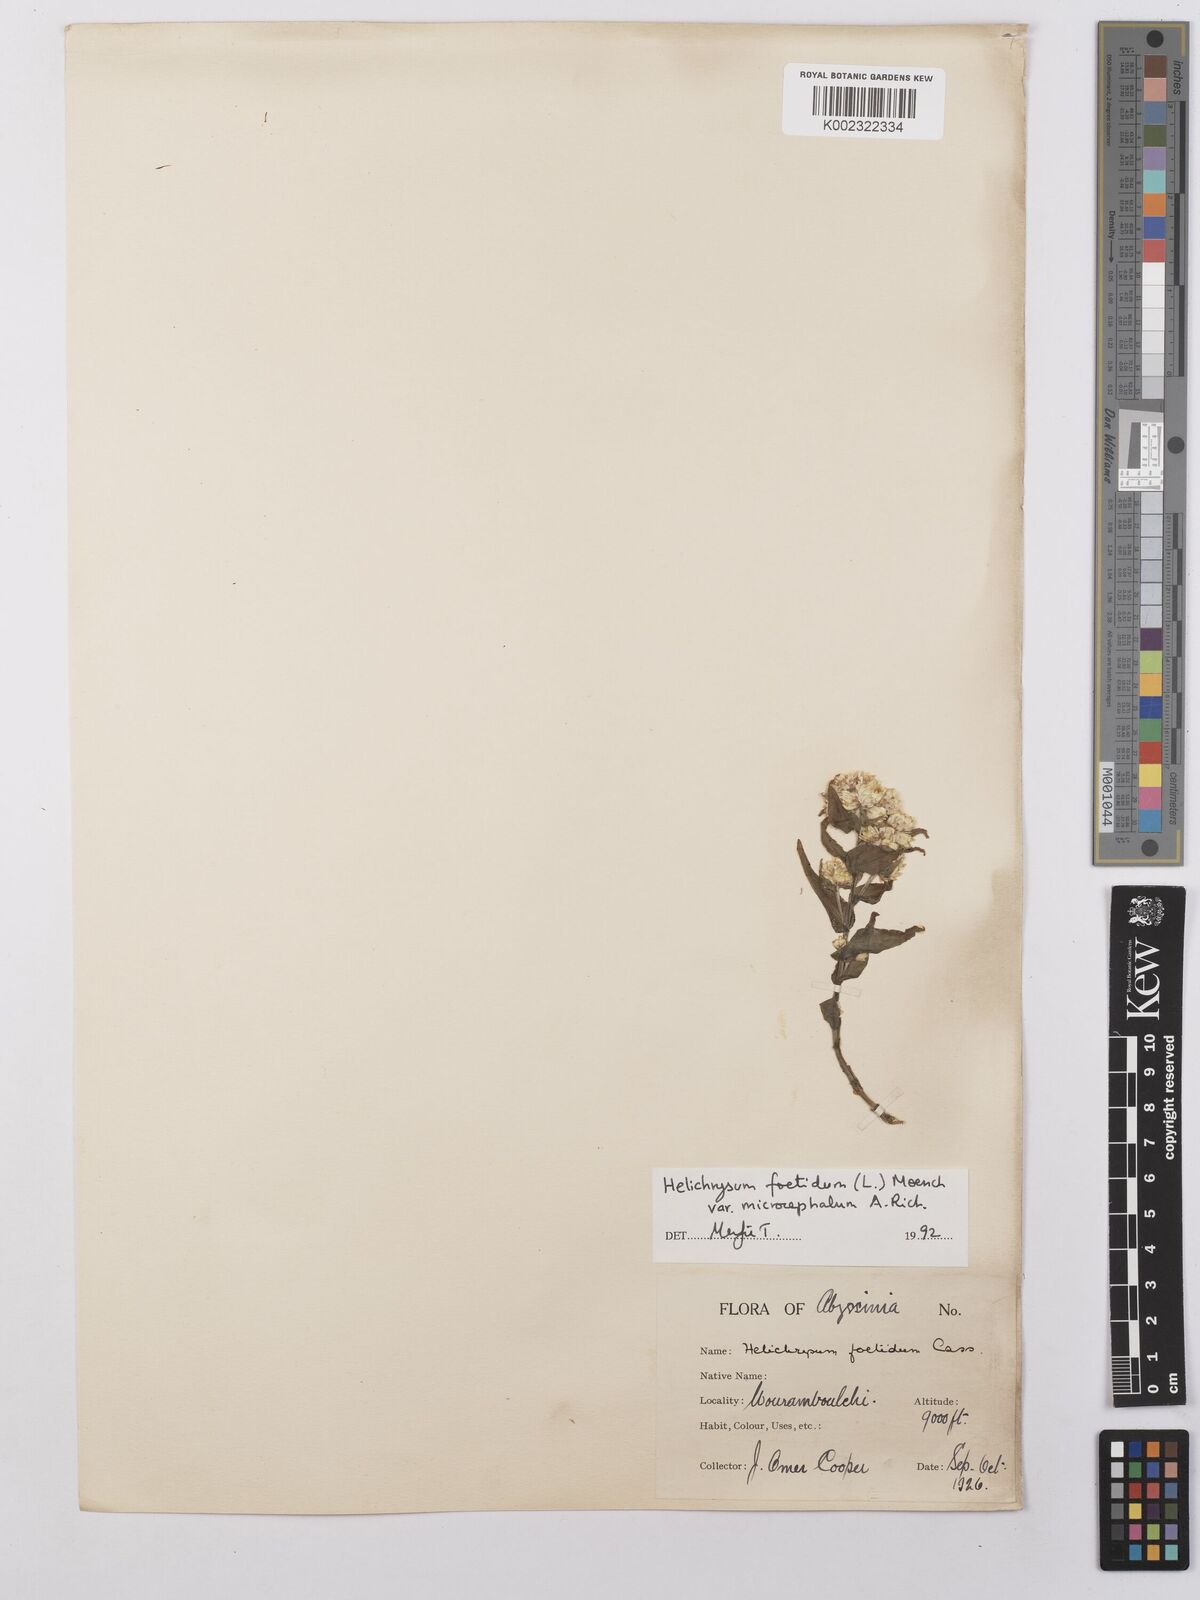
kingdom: Plantae
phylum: Tracheophyta
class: Magnoliopsida
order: Asterales
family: Asteraceae
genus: Helichrysum
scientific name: Helichrysum foetidum
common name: Stinking everlasting
